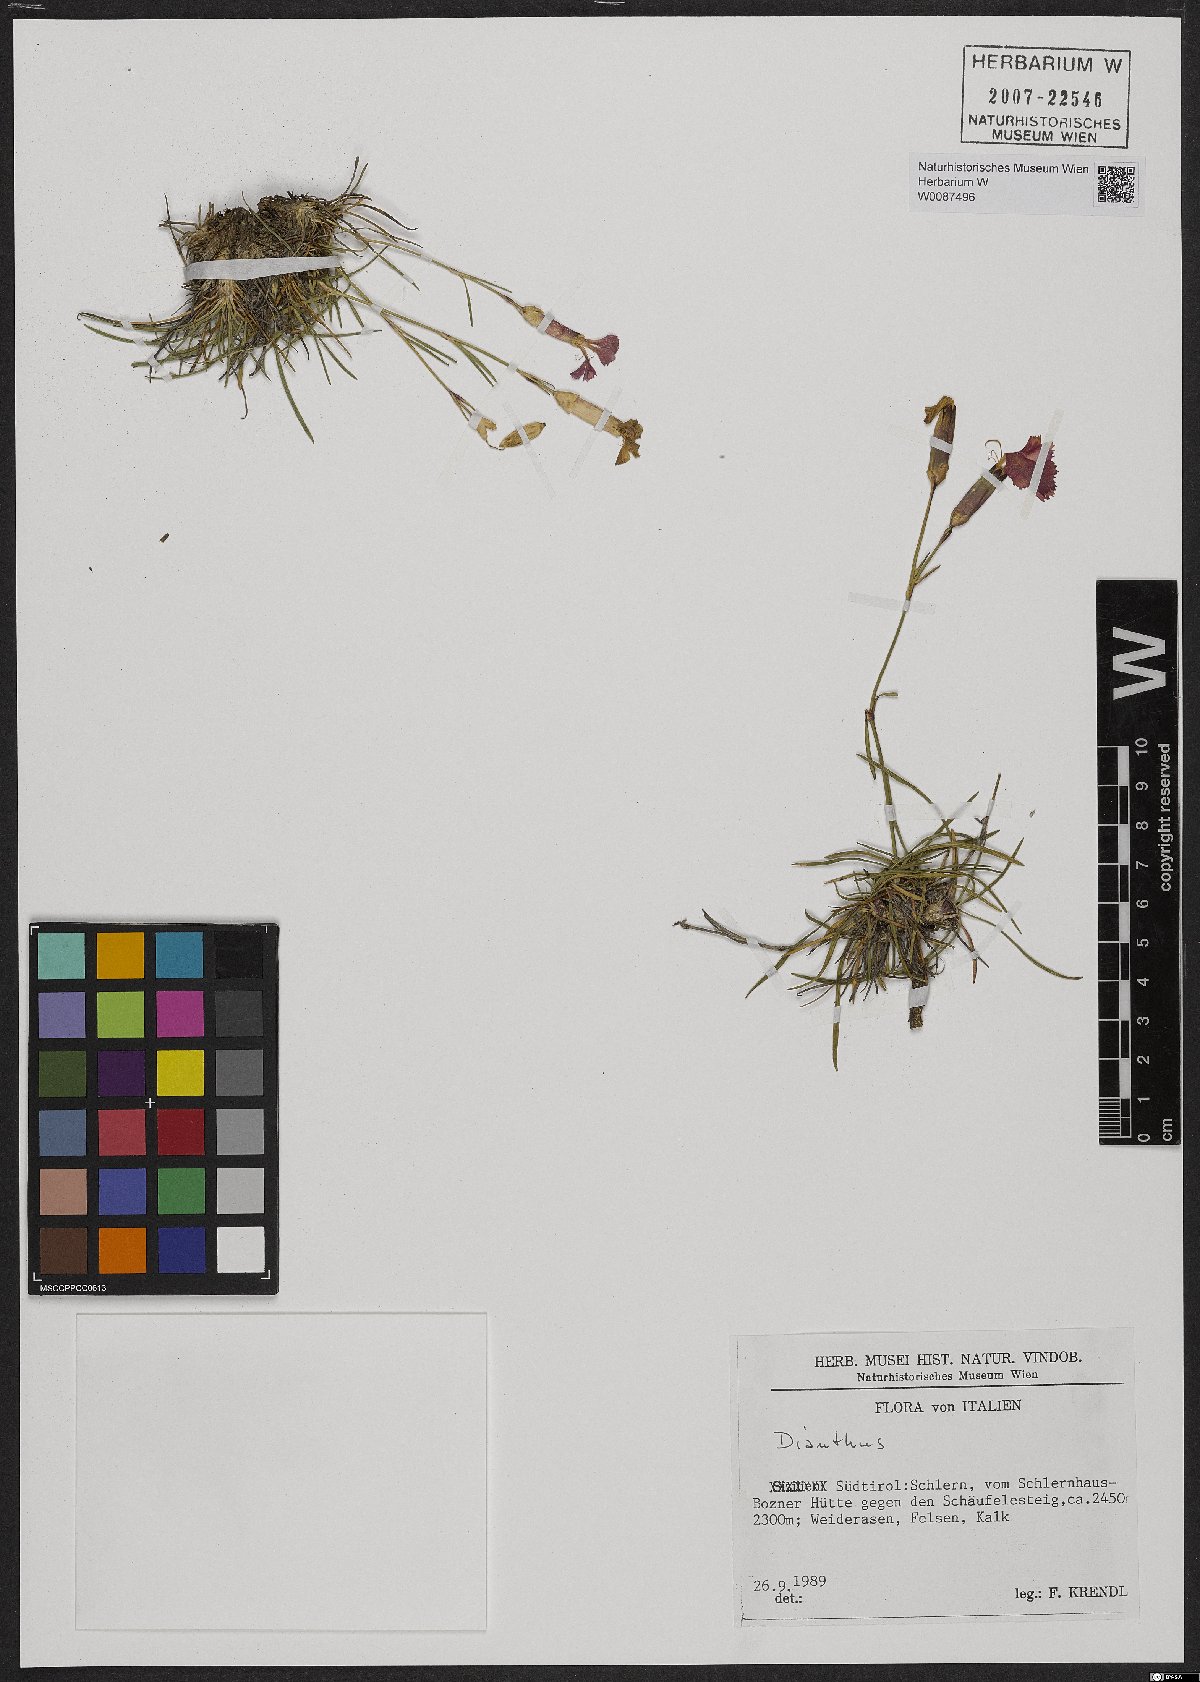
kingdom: Plantae
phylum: Tracheophyta
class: Magnoliopsida
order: Caryophyllales
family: Caryophyllaceae
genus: Dianthus
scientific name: Dianthus
